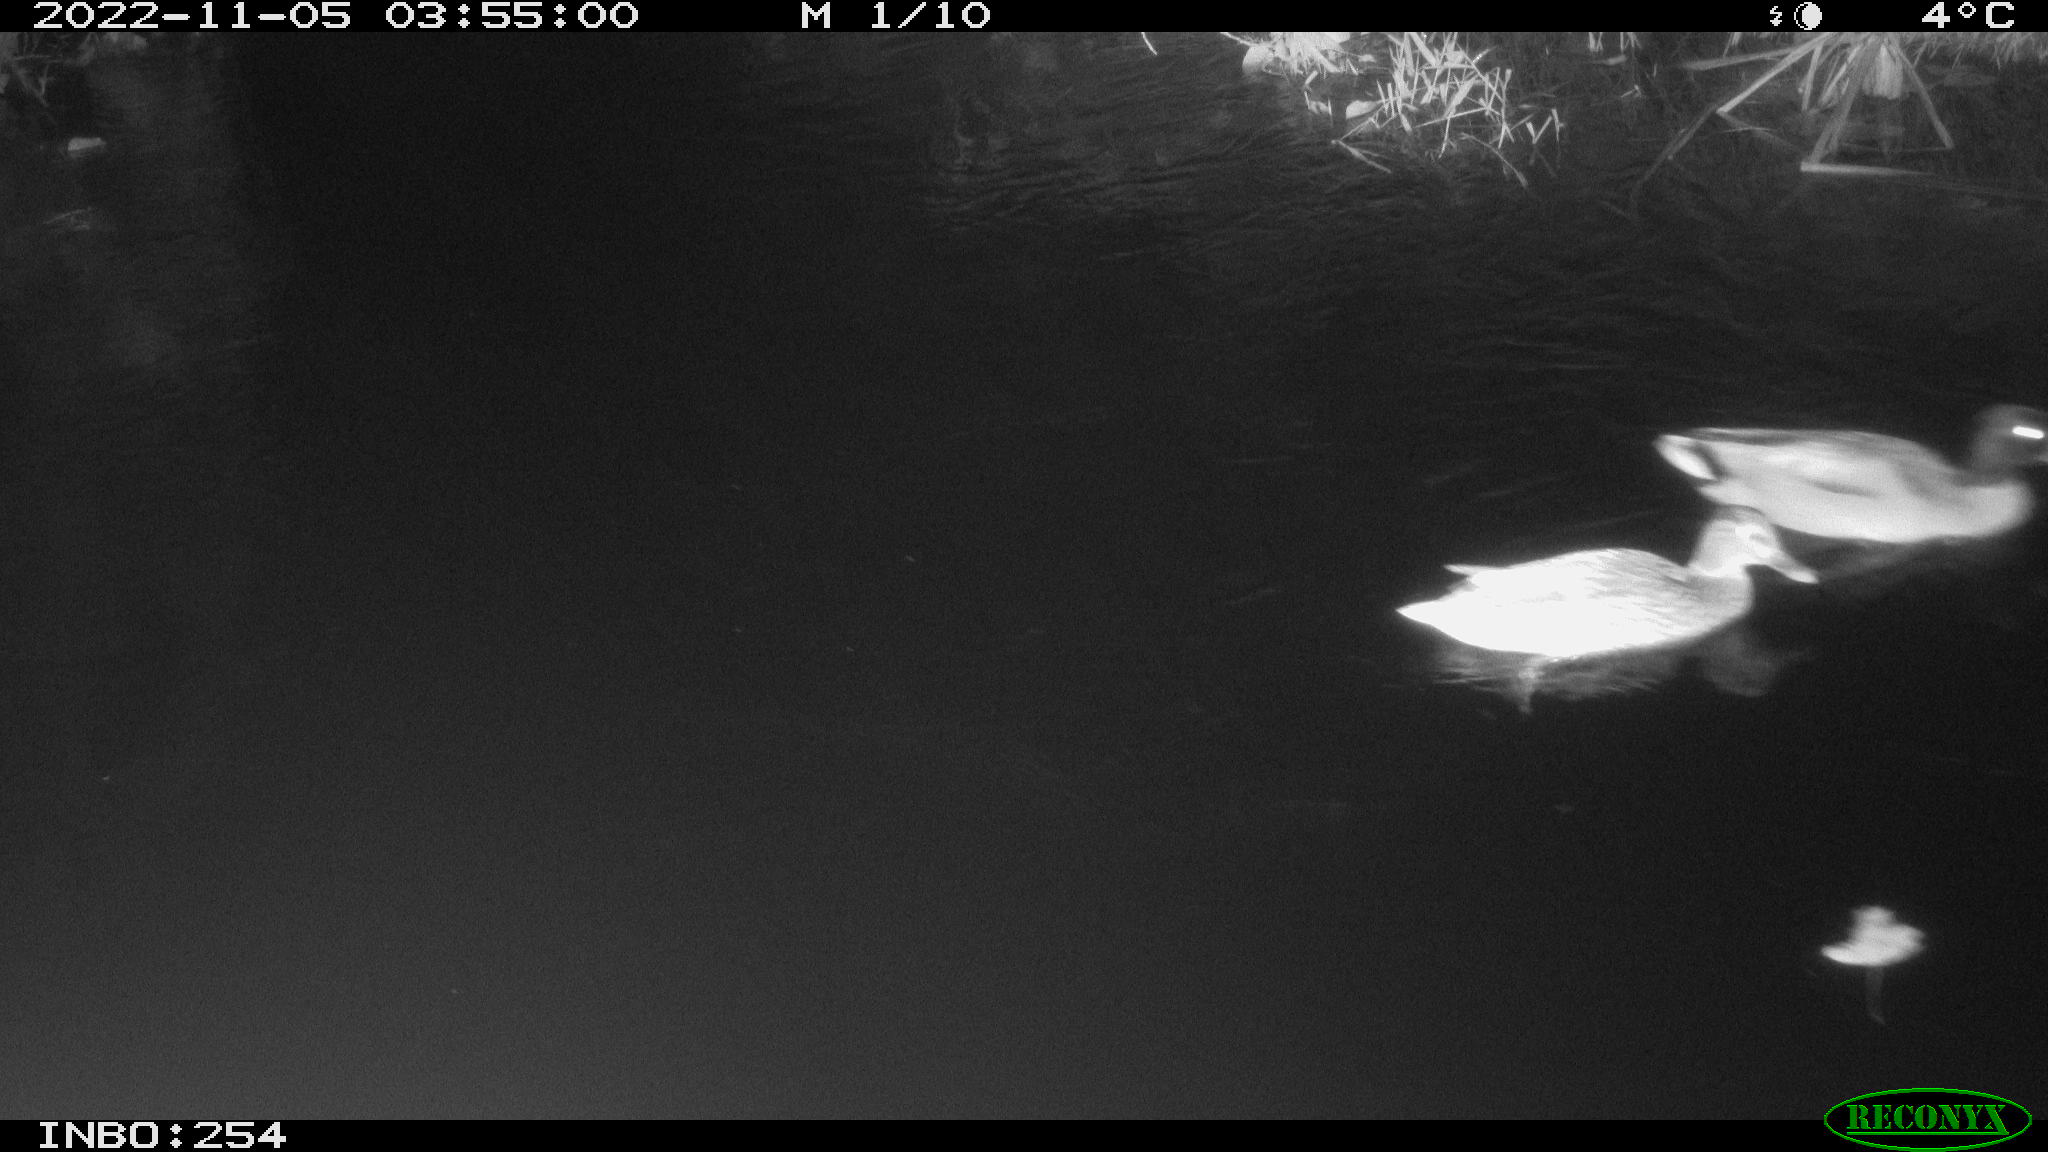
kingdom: Animalia
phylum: Chordata
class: Aves
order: Anseriformes
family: Anatidae
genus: Anas
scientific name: Anas
